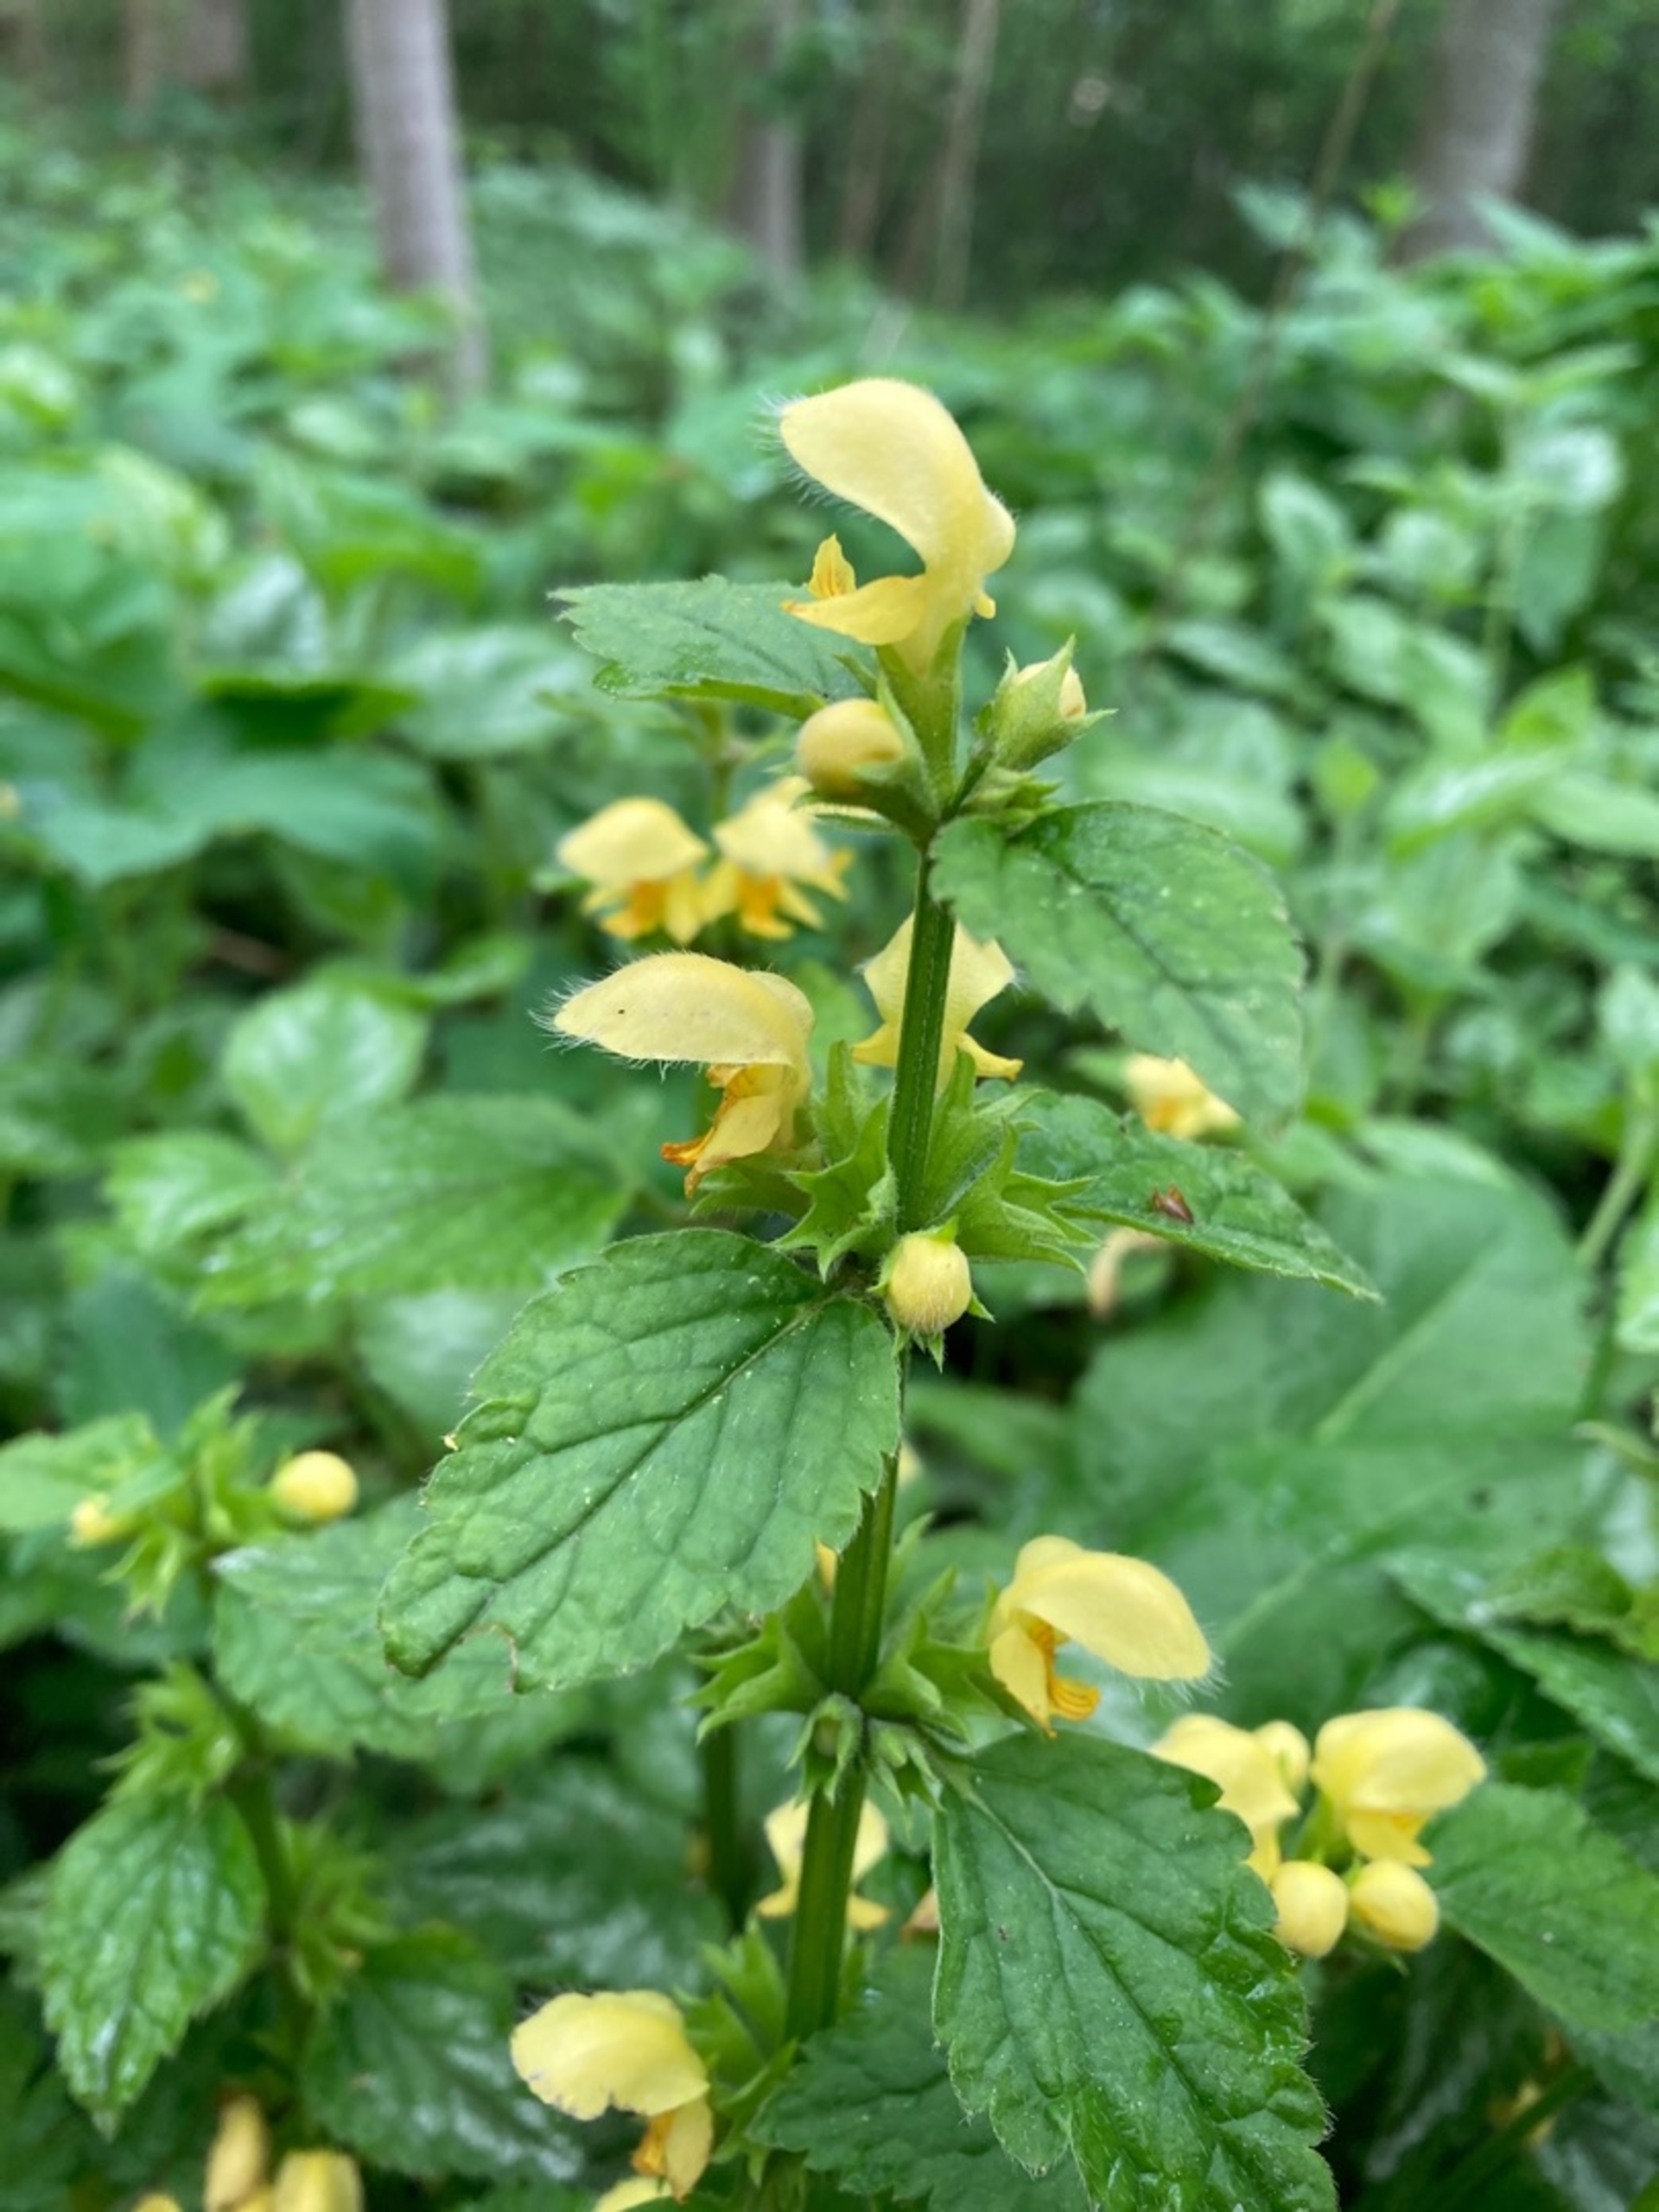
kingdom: Plantae
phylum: Tracheophyta
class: Magnoliopsida
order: Lamiales
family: Lamiaceae
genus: Lamium
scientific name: Lamium galeobdolon
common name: Guldnælde
